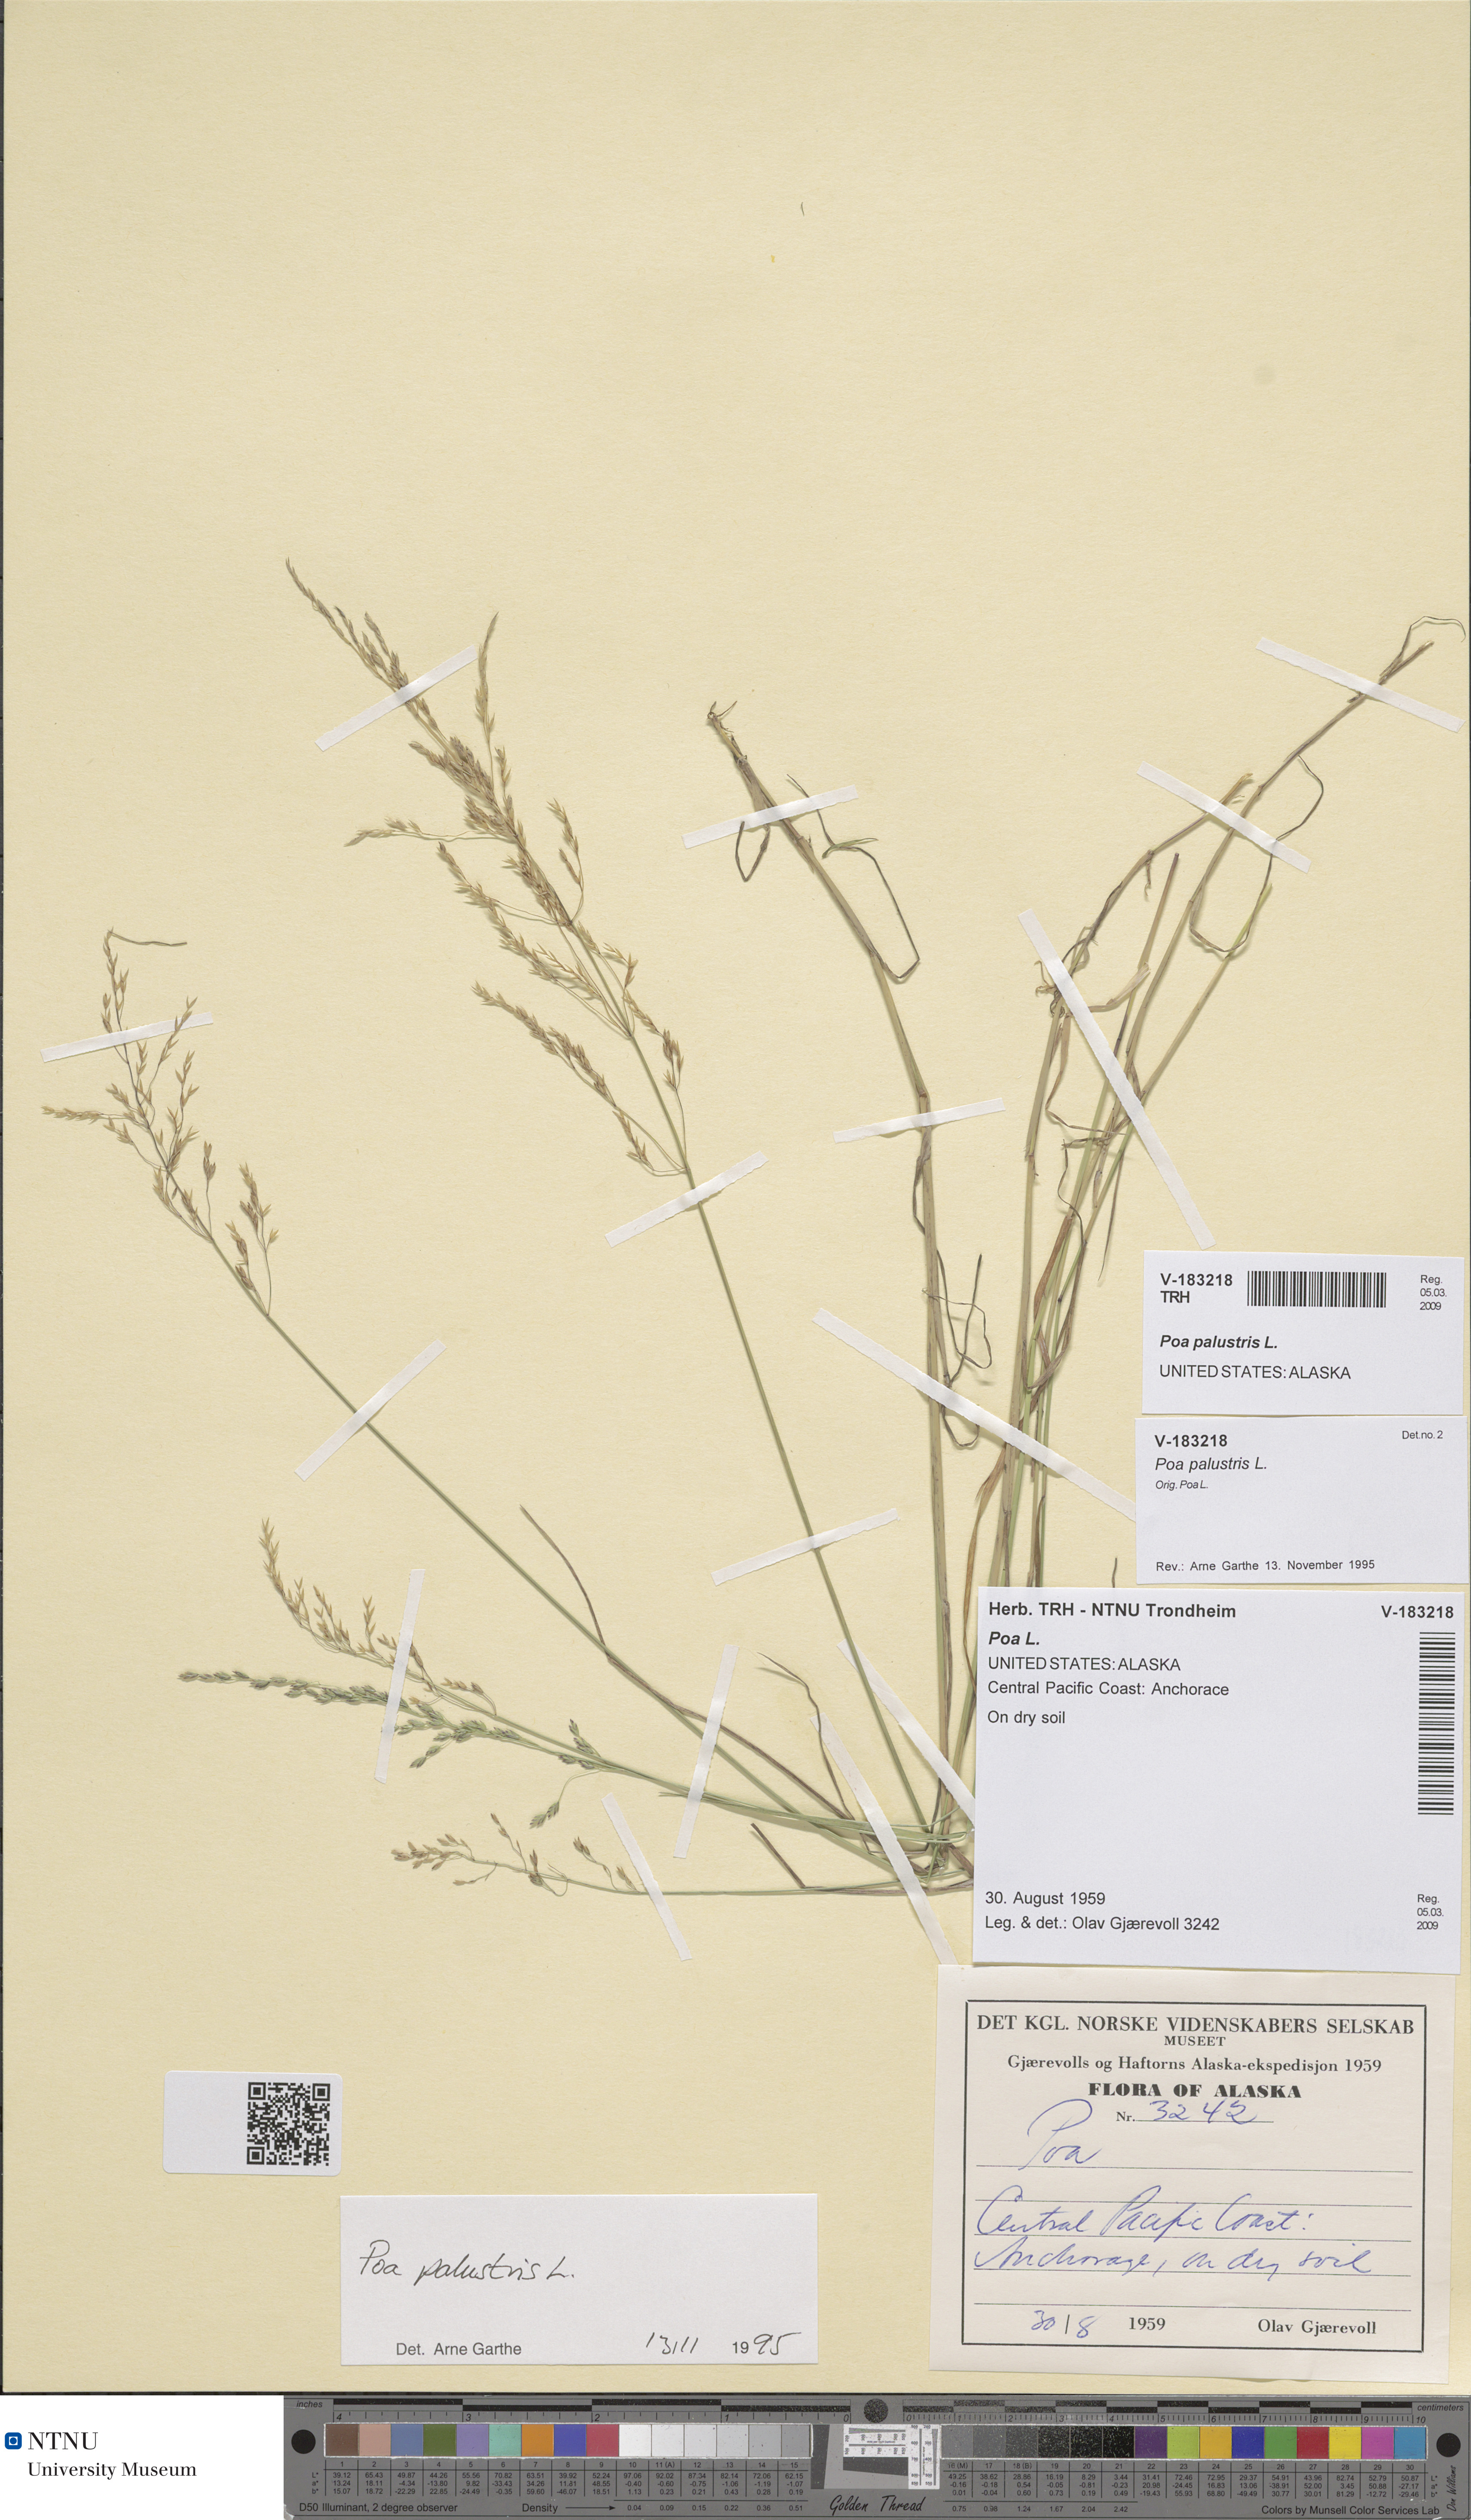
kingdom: Plantae
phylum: Tracheophyta
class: Liliopsida
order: Poales
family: Poaceae
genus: Poa
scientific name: Poa palustris
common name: Swamp meadow-grass
